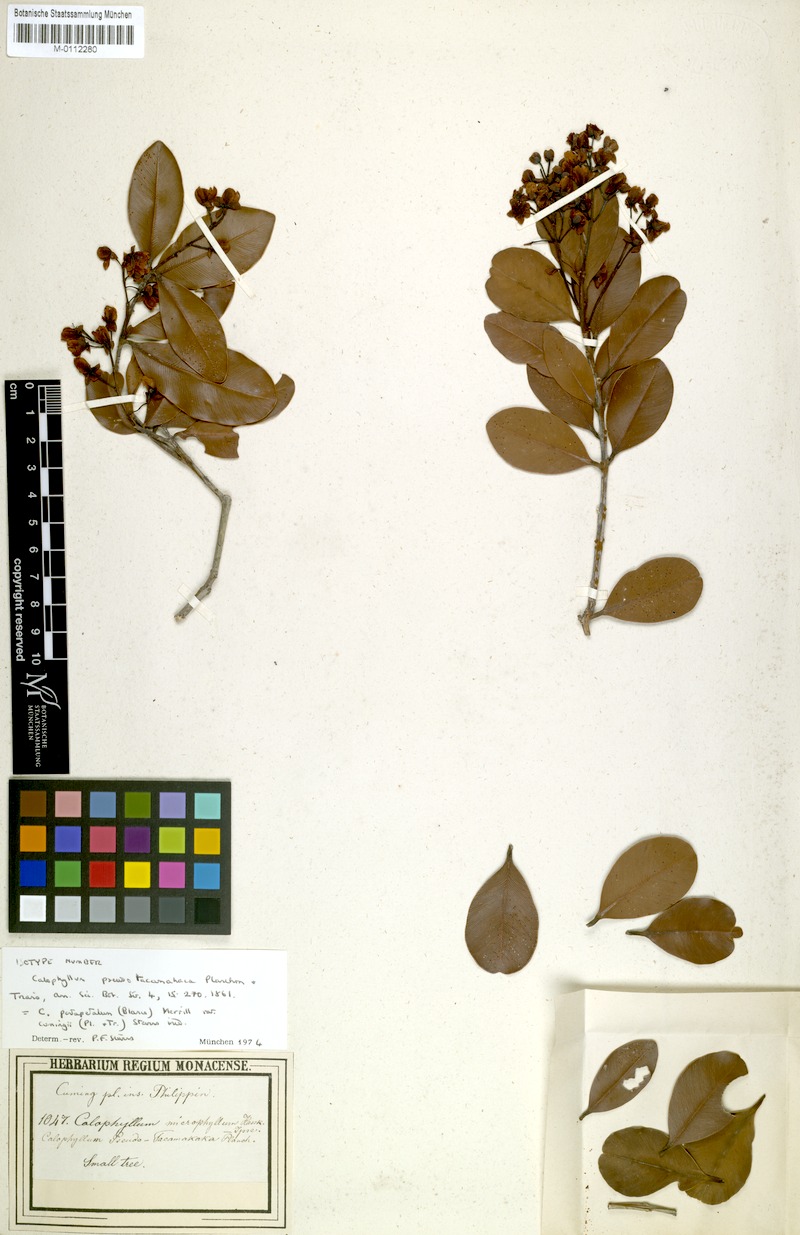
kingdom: Plantae
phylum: Tracheophyta
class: Magnoliopsida
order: Malpighiales
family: Calophyllaceae
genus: Calophyllum
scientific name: Calophyllum pentapetalum
